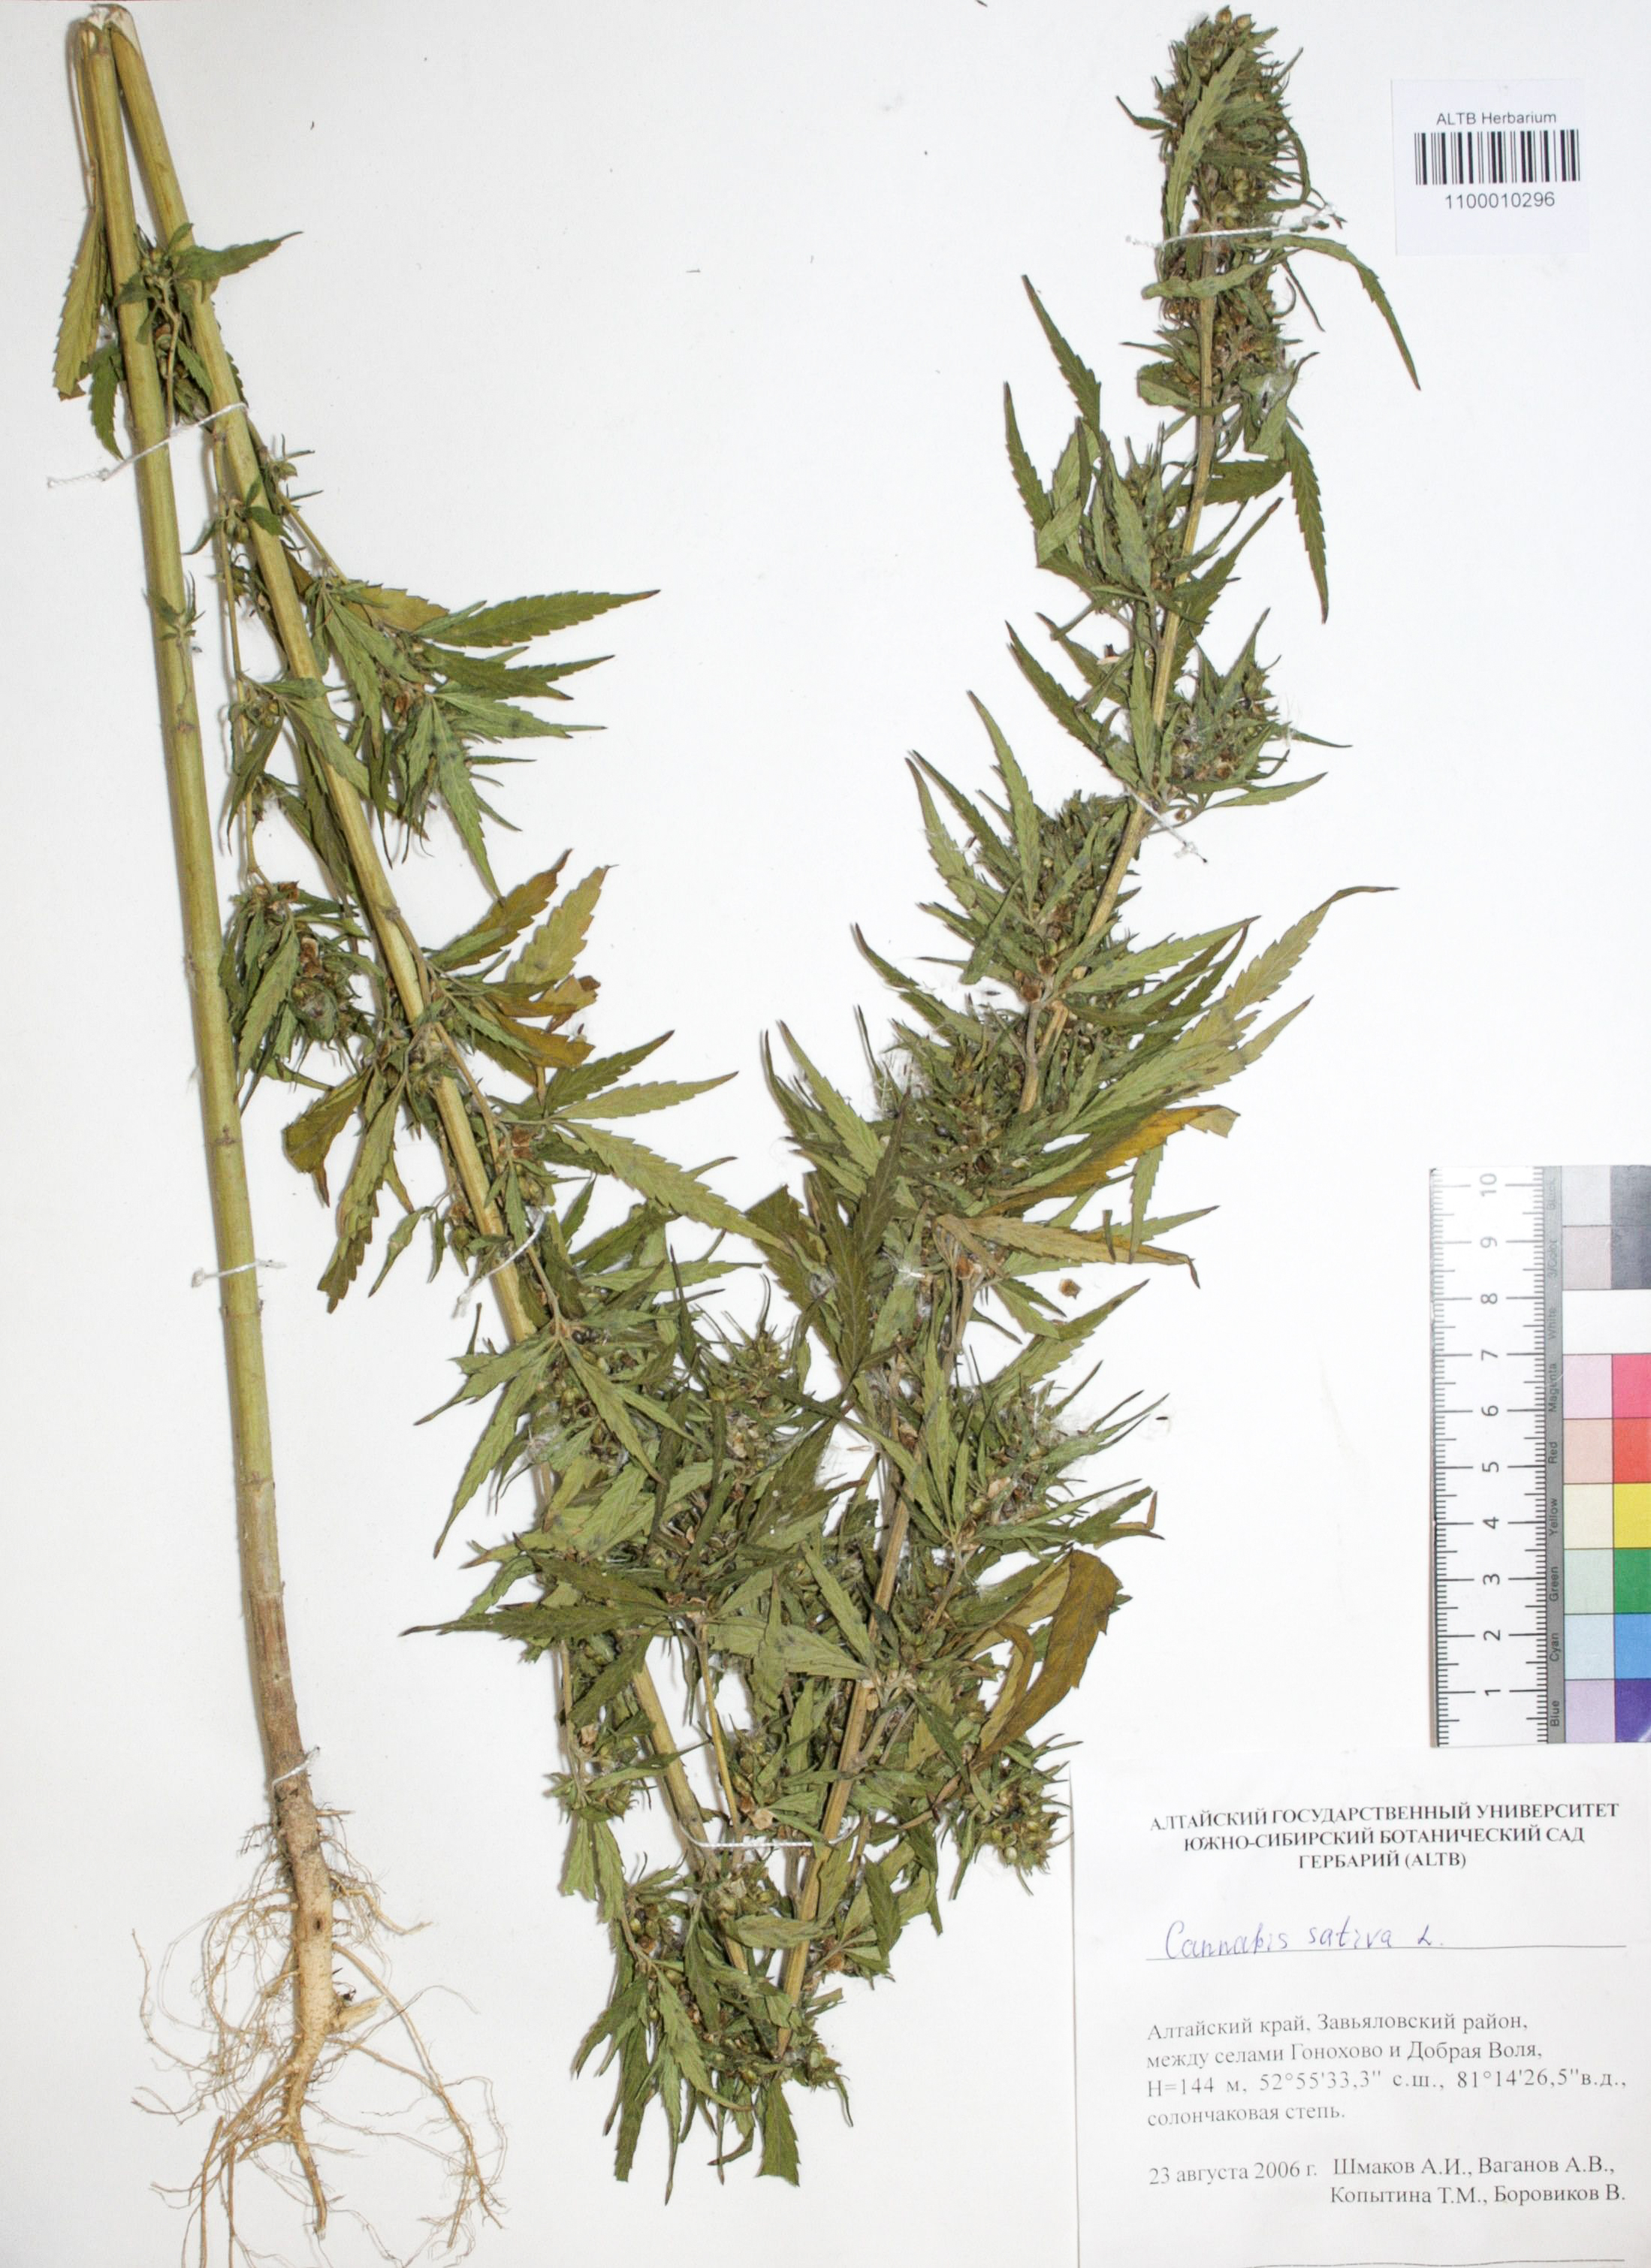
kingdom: Plantae
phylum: Tracheophyta
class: Magnoliopsida
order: Rosales
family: Cannabaceae
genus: Cannabis
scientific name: Cannabis sativa
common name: Hemp
